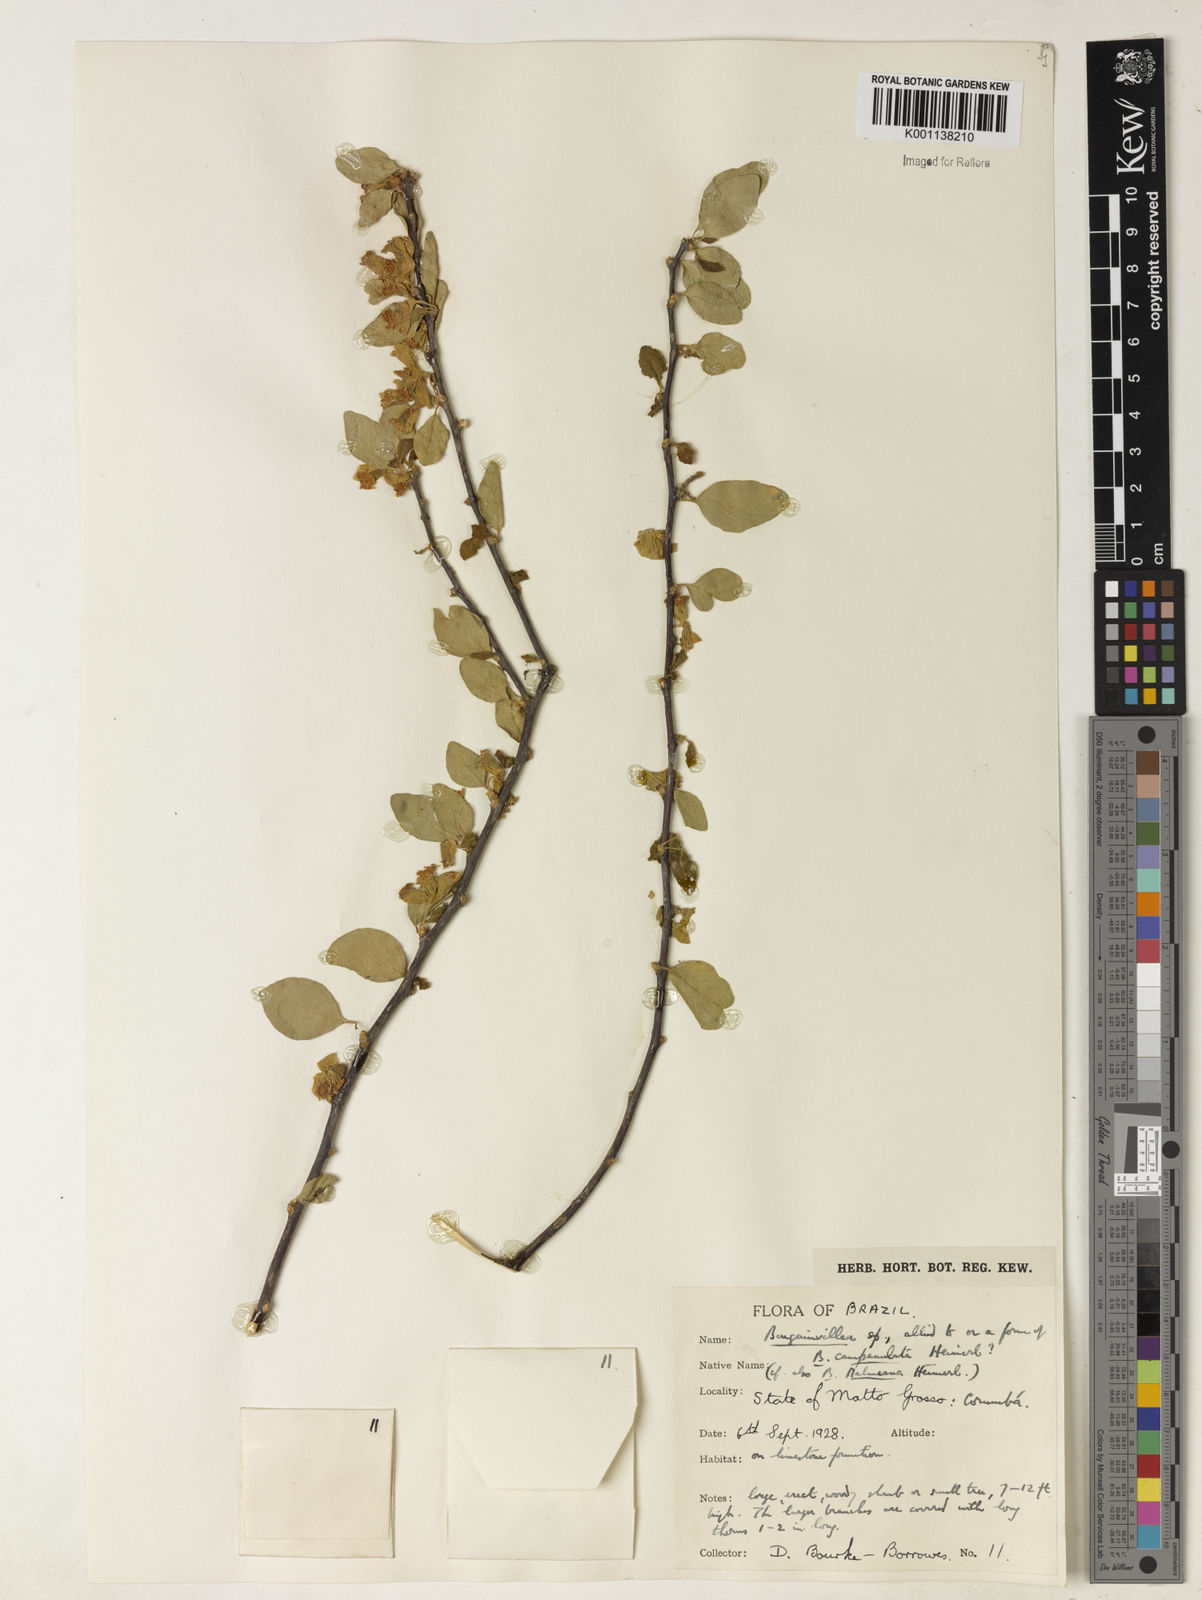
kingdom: Plantae
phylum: Tracheophyta
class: Magnoliopsida
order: Caryophyllales
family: Nyctaginaceae
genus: Bougainvillea
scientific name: Bougainvillea
